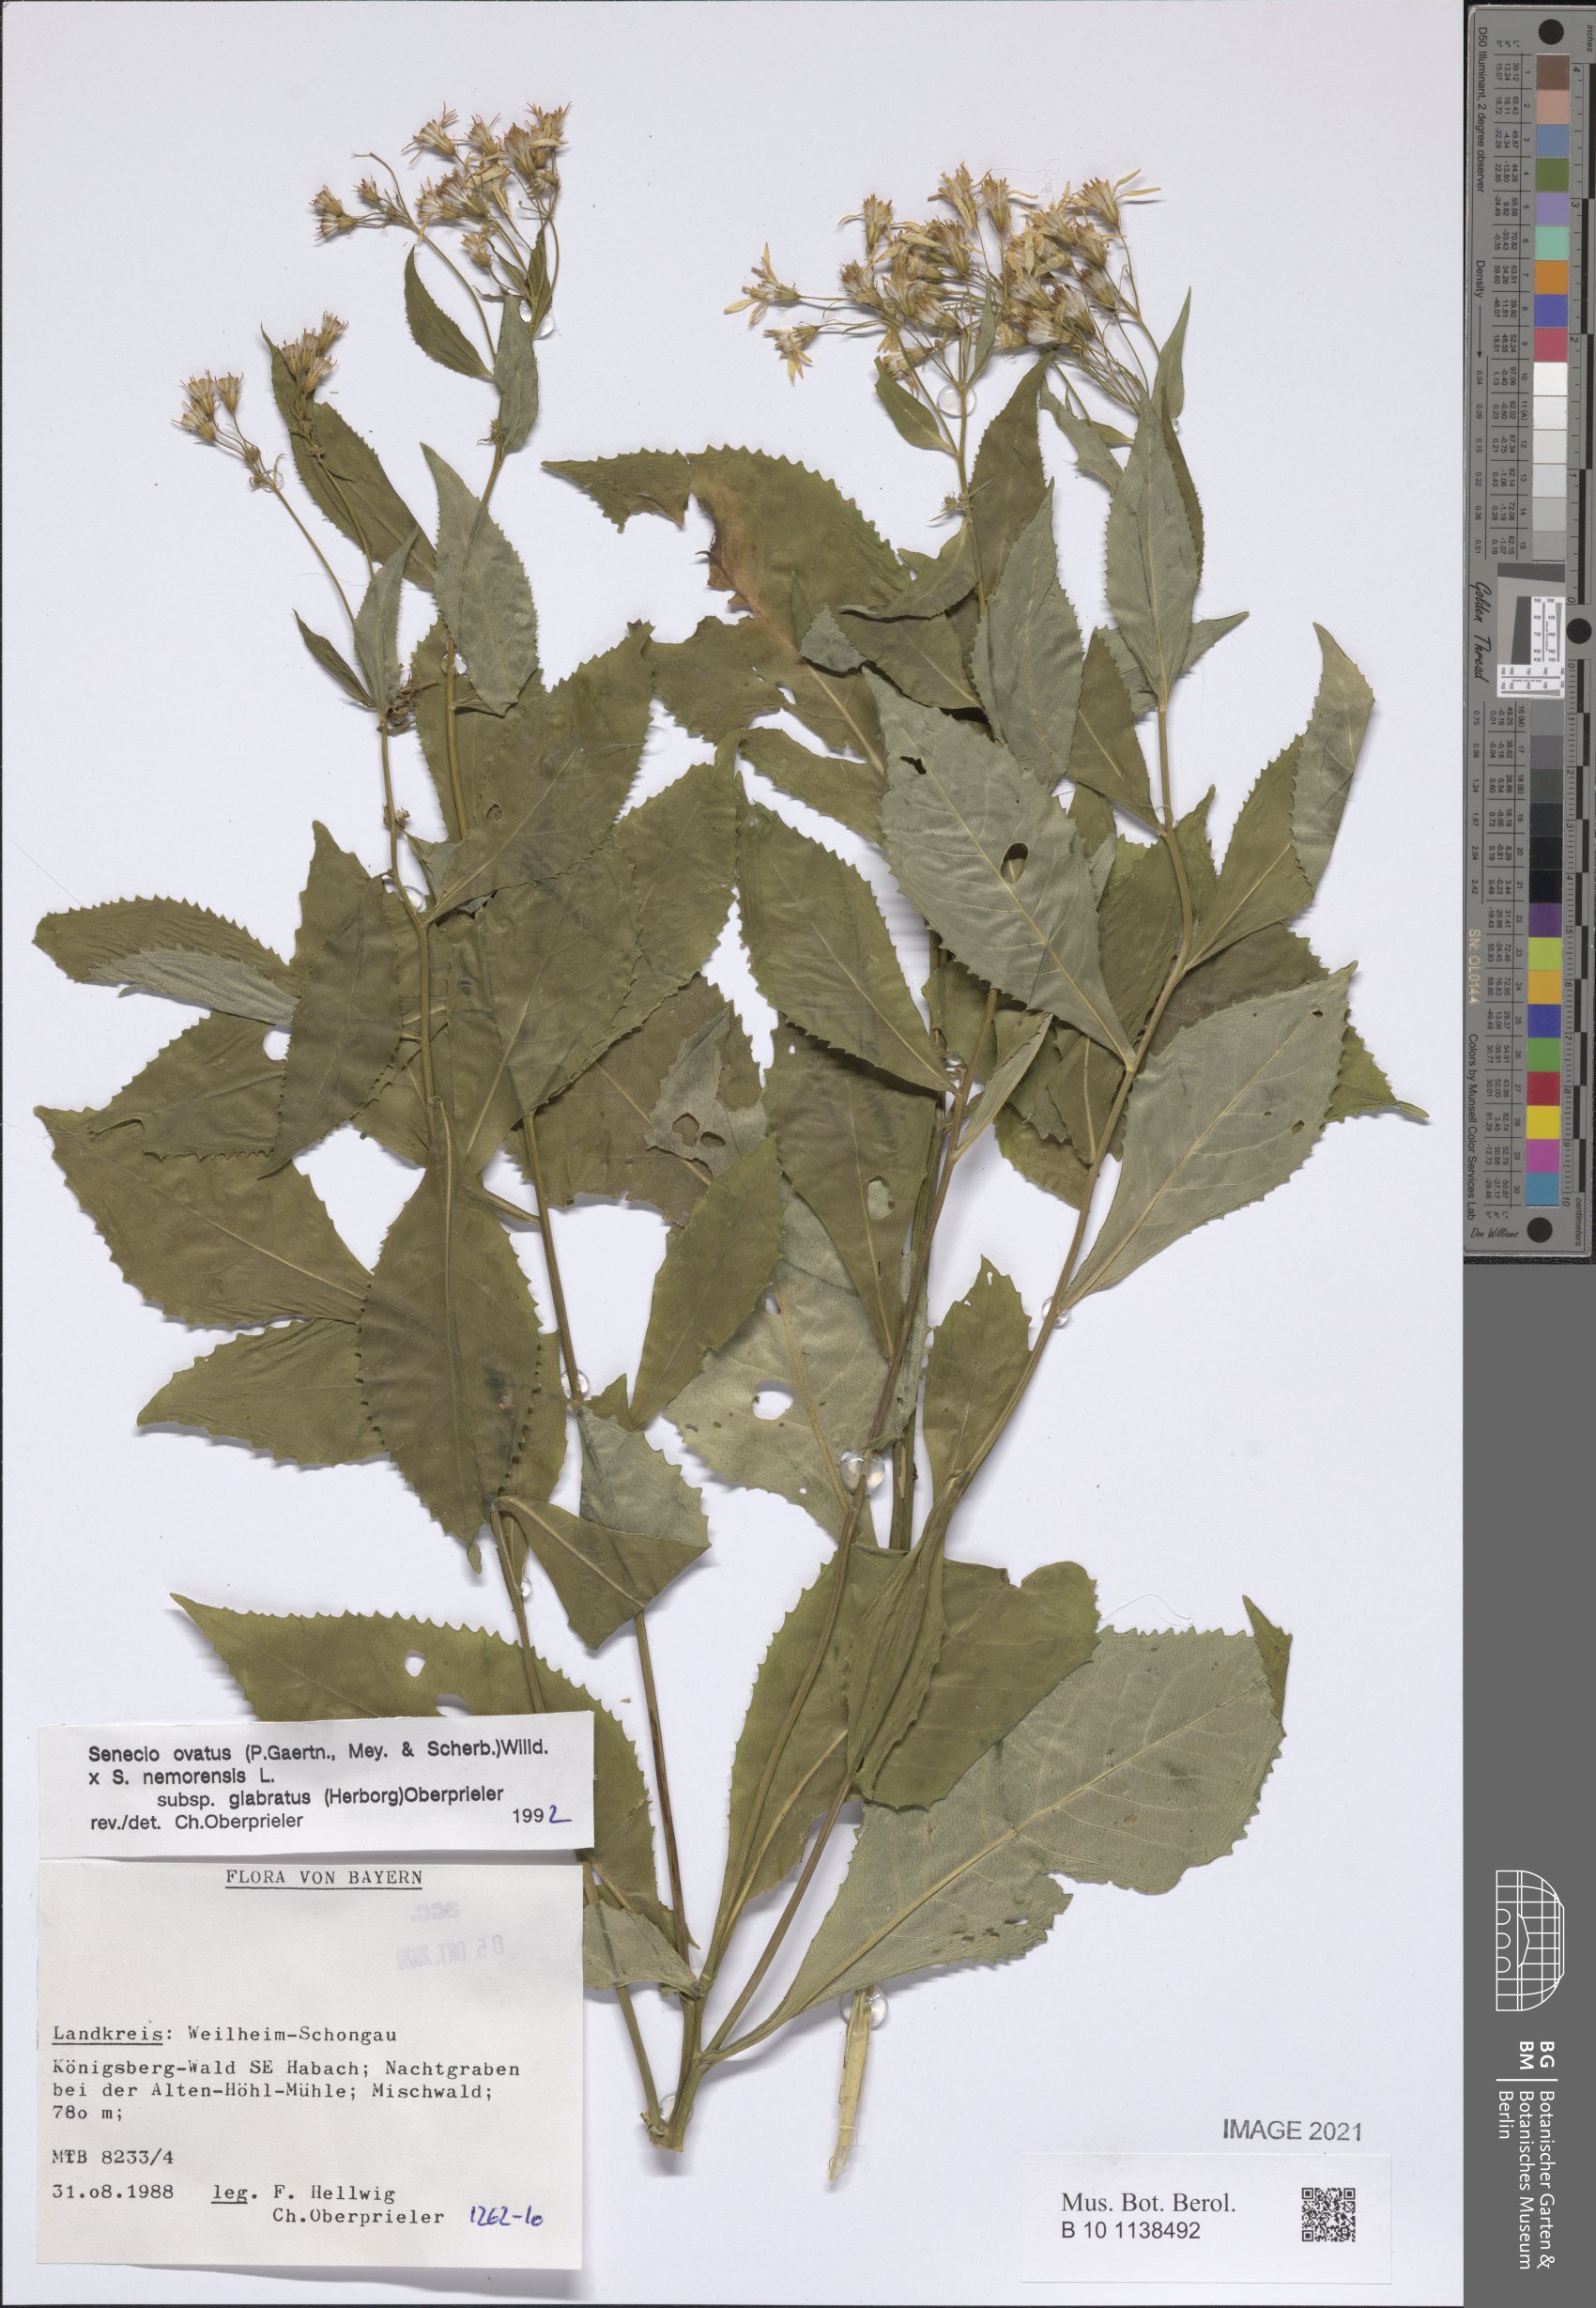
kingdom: Plantae
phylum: Tracheophyta
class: Magnoliopsida
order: Asterales
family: Asteraceae
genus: Senecio
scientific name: Senecio ovatus
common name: Wood ragwort
